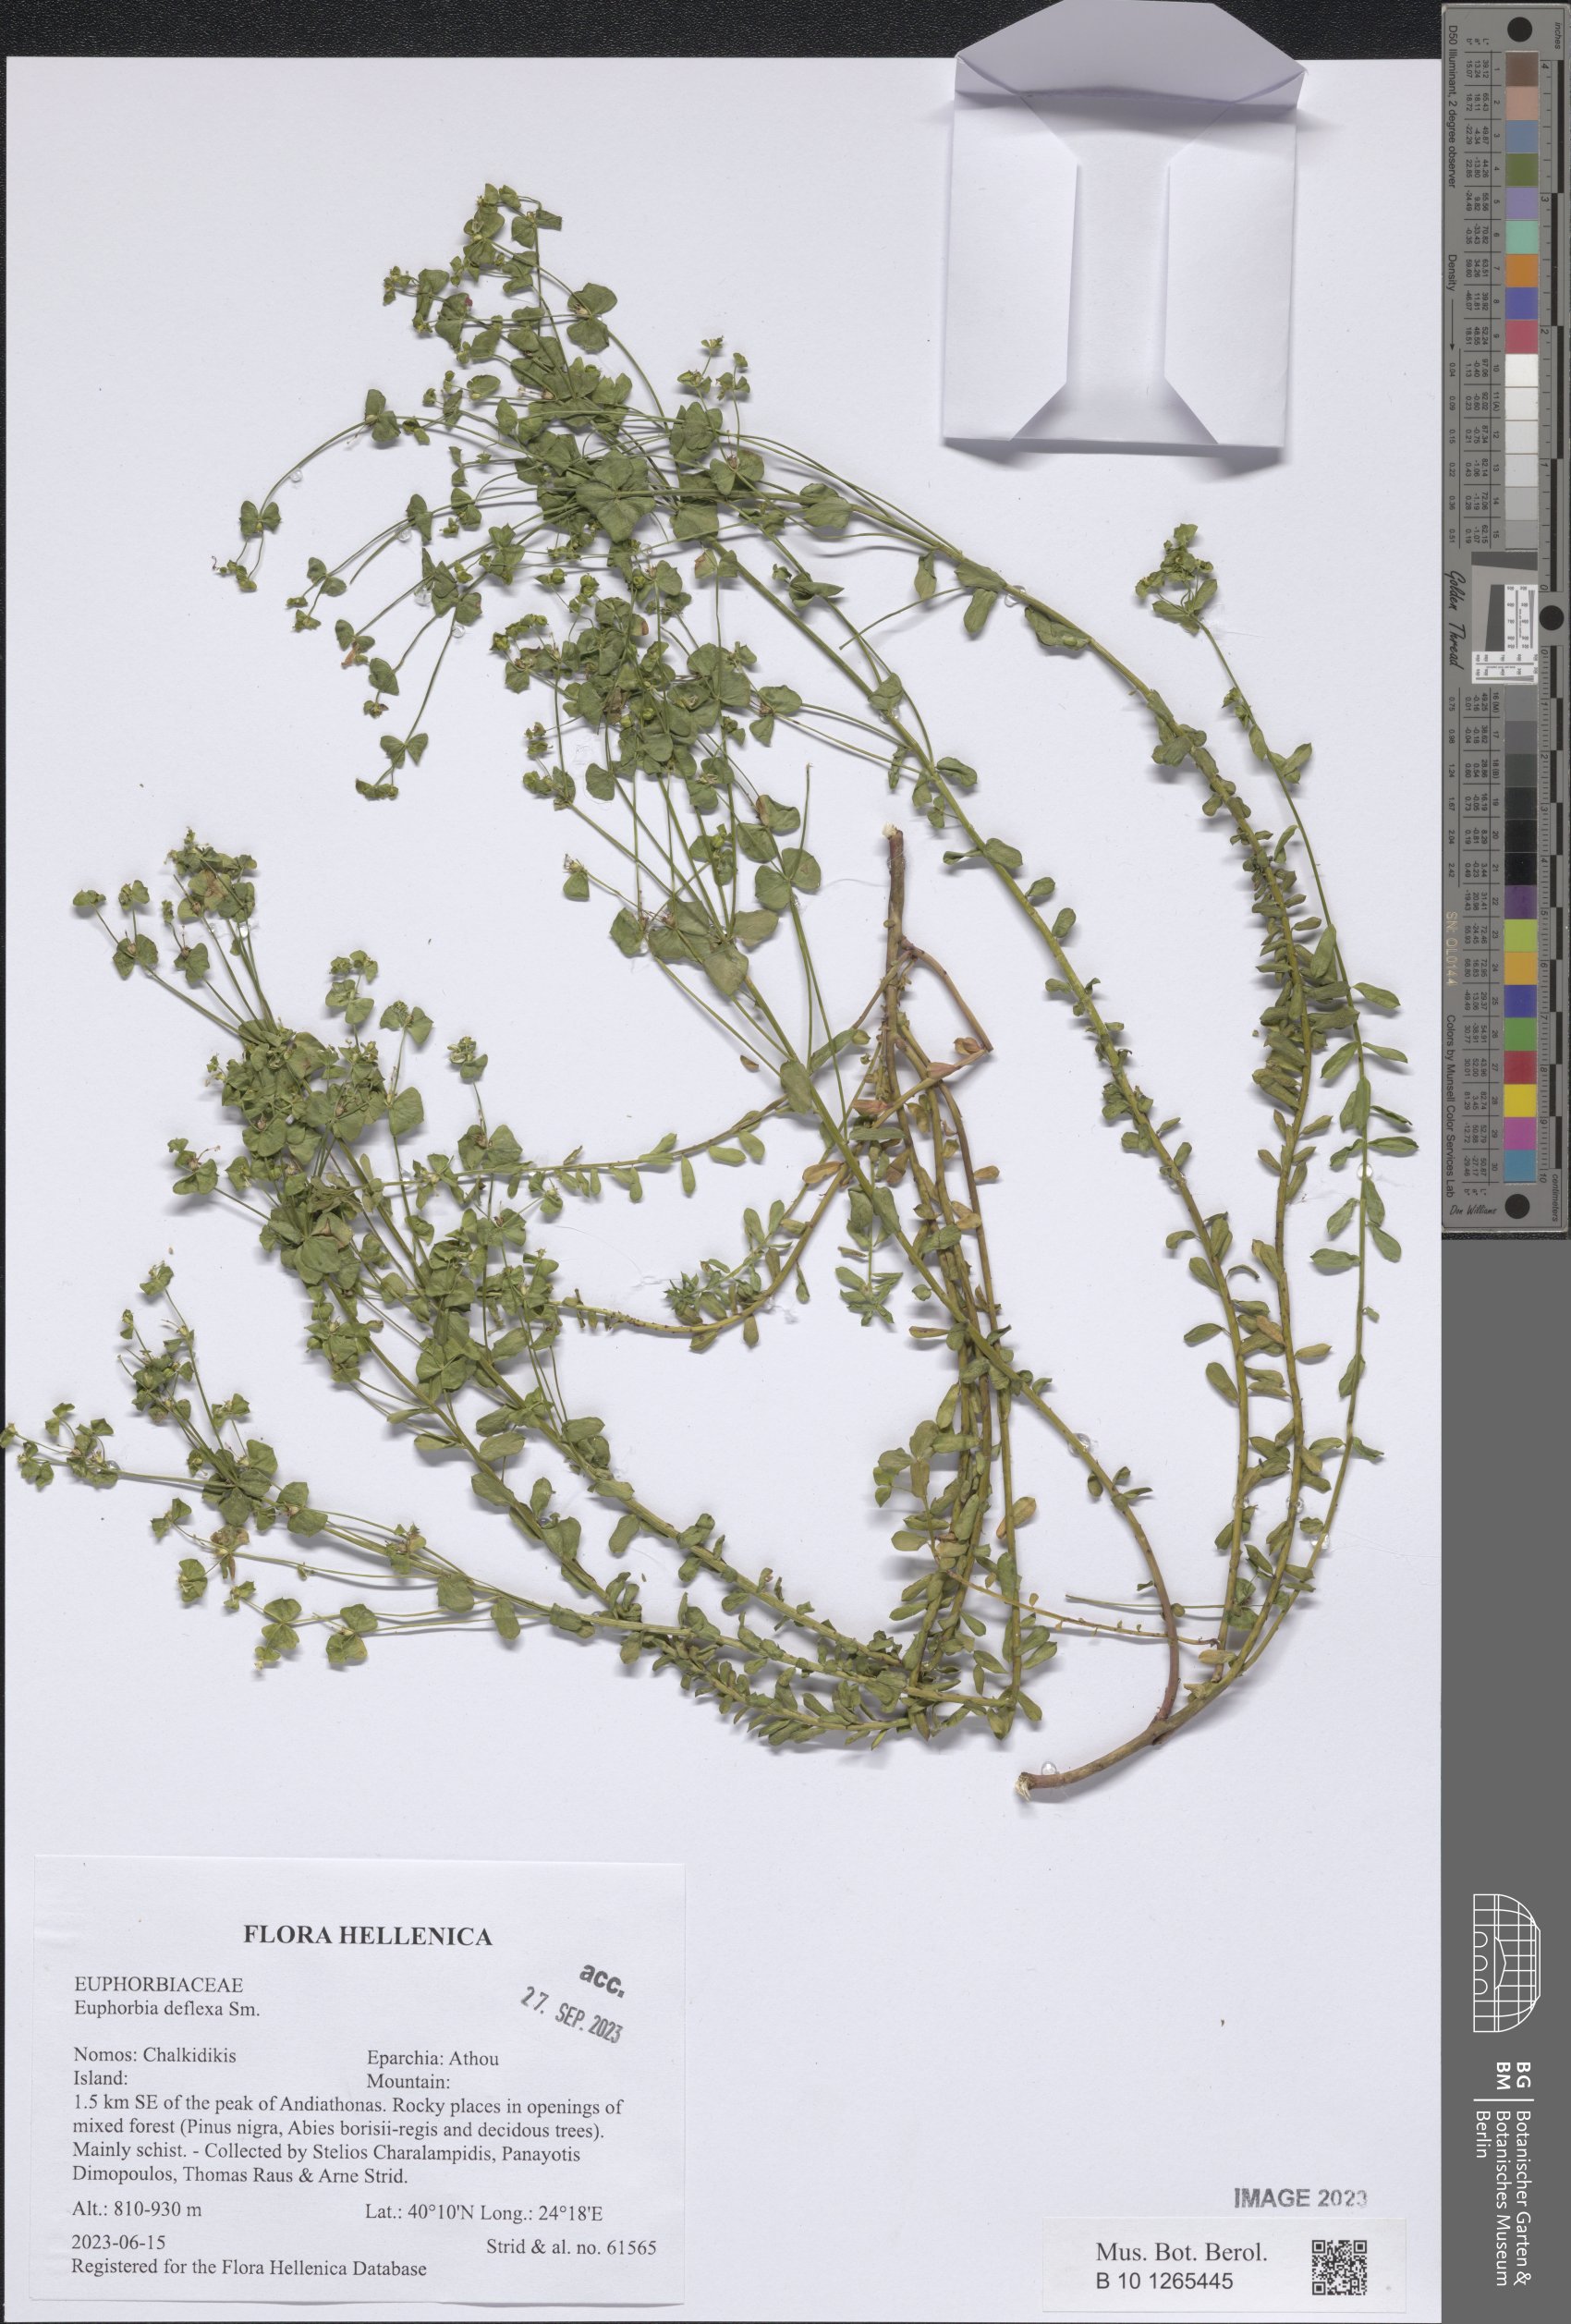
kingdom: Plantae
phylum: Tracheophyta
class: Magnoliopsida
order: Malpighiales
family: Euphorbiaceae
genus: Euphorbia
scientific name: Euphorbia deflexa
